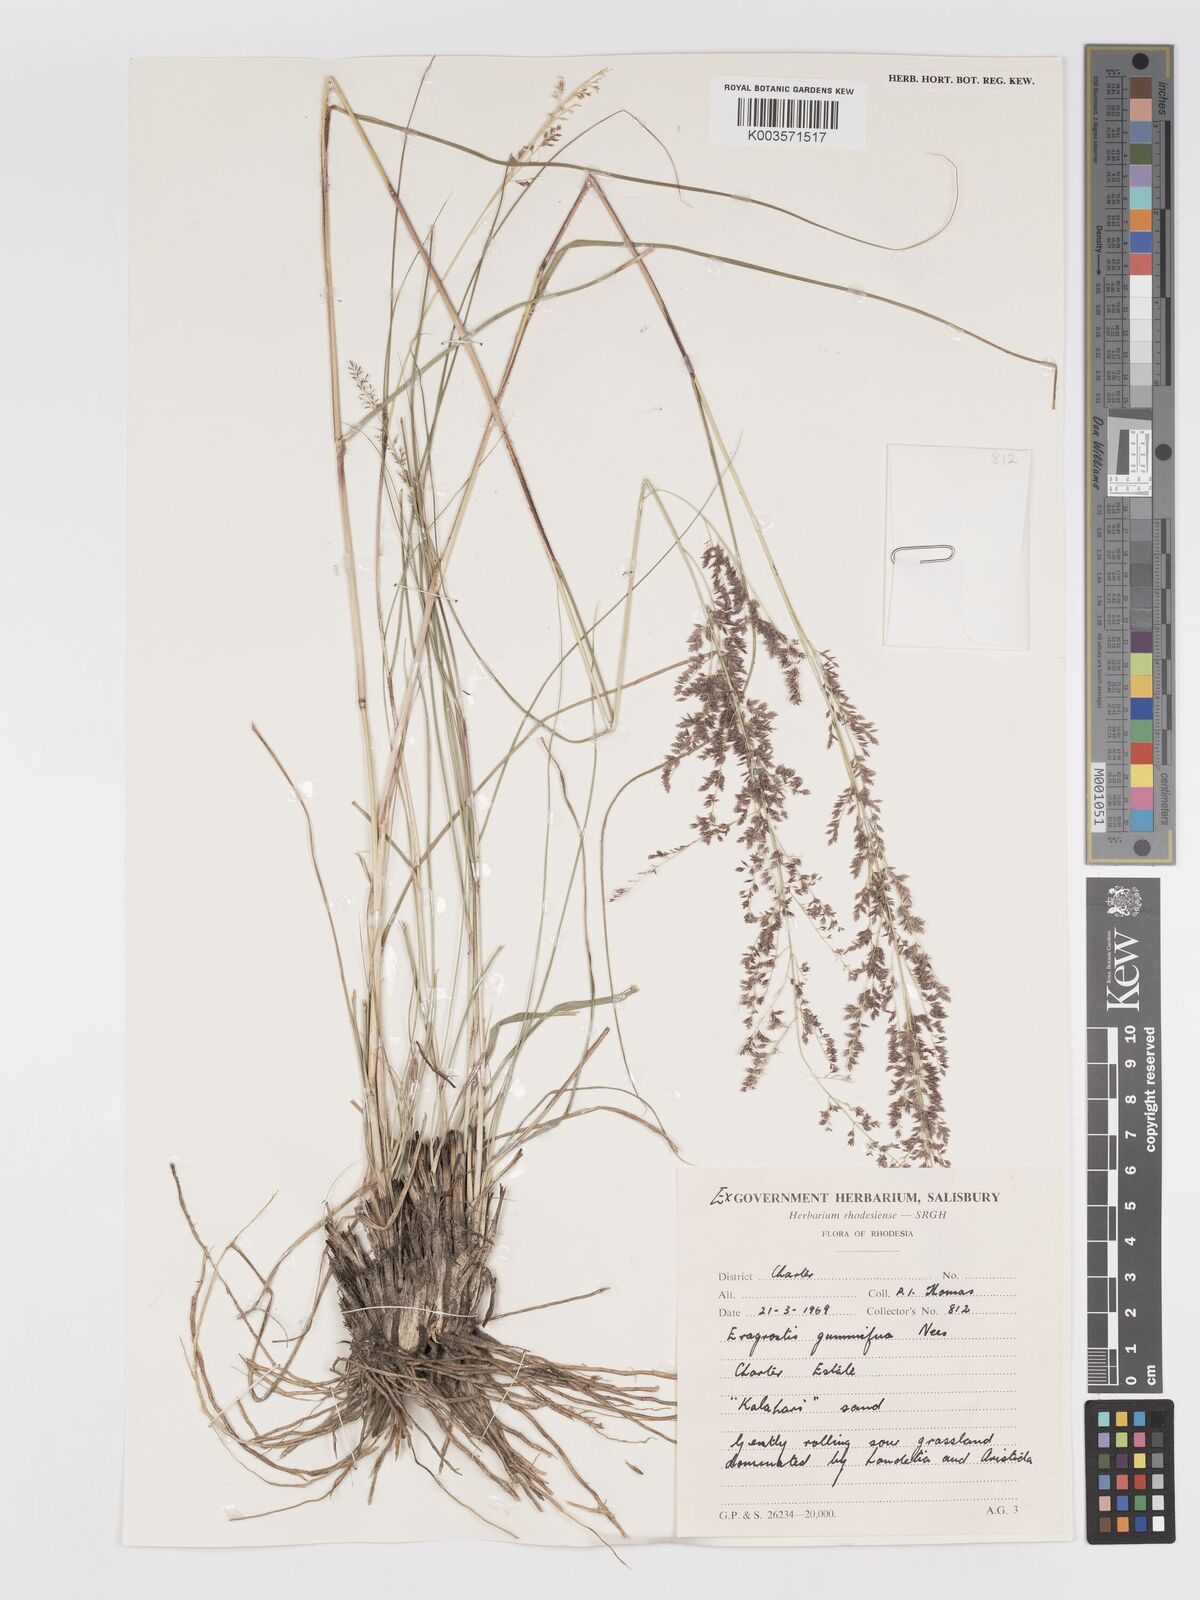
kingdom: Plantae
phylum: Tracheophyta
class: Liliopsida
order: Poales
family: Poaceae
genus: Eragrostis
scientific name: Eragrostis gummiflua
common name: Gum grass
